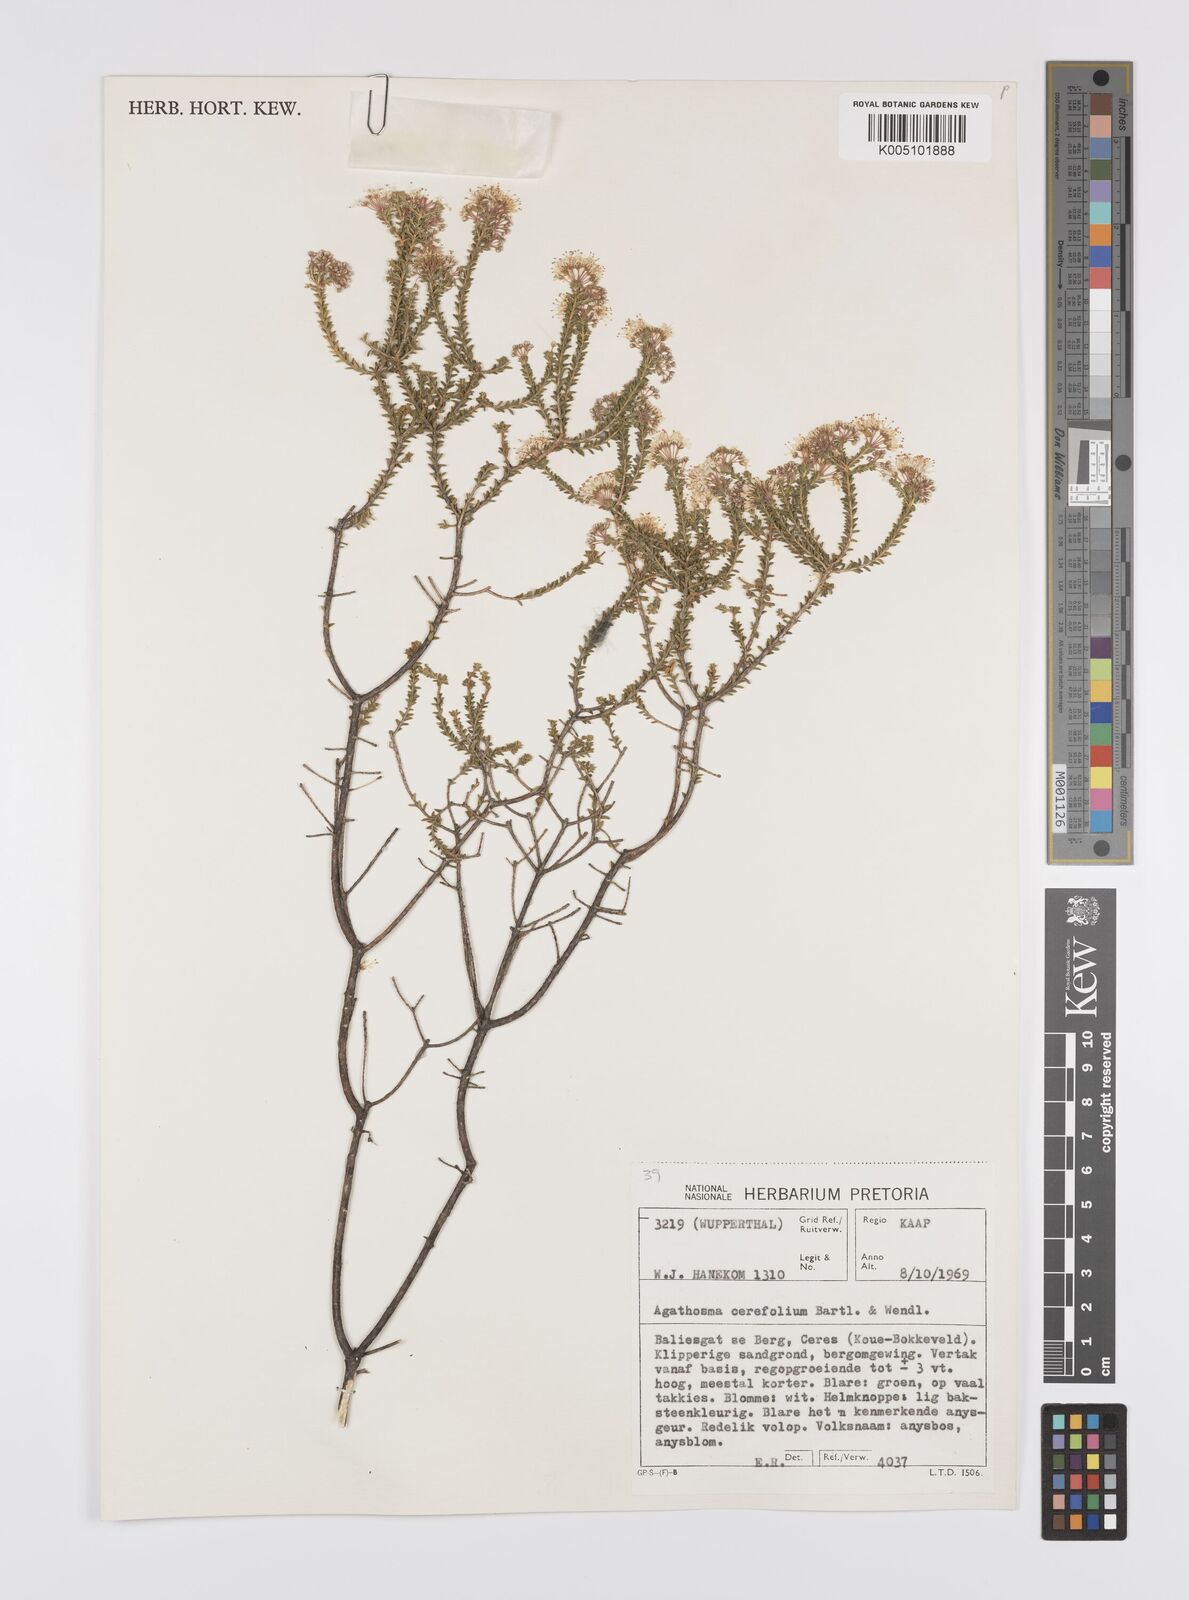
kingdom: Plantae
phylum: Tracheophyta
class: Magnoliopsida
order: Sapindales
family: Rutaceae
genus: Agathosma
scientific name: Agathosma cerefolia
